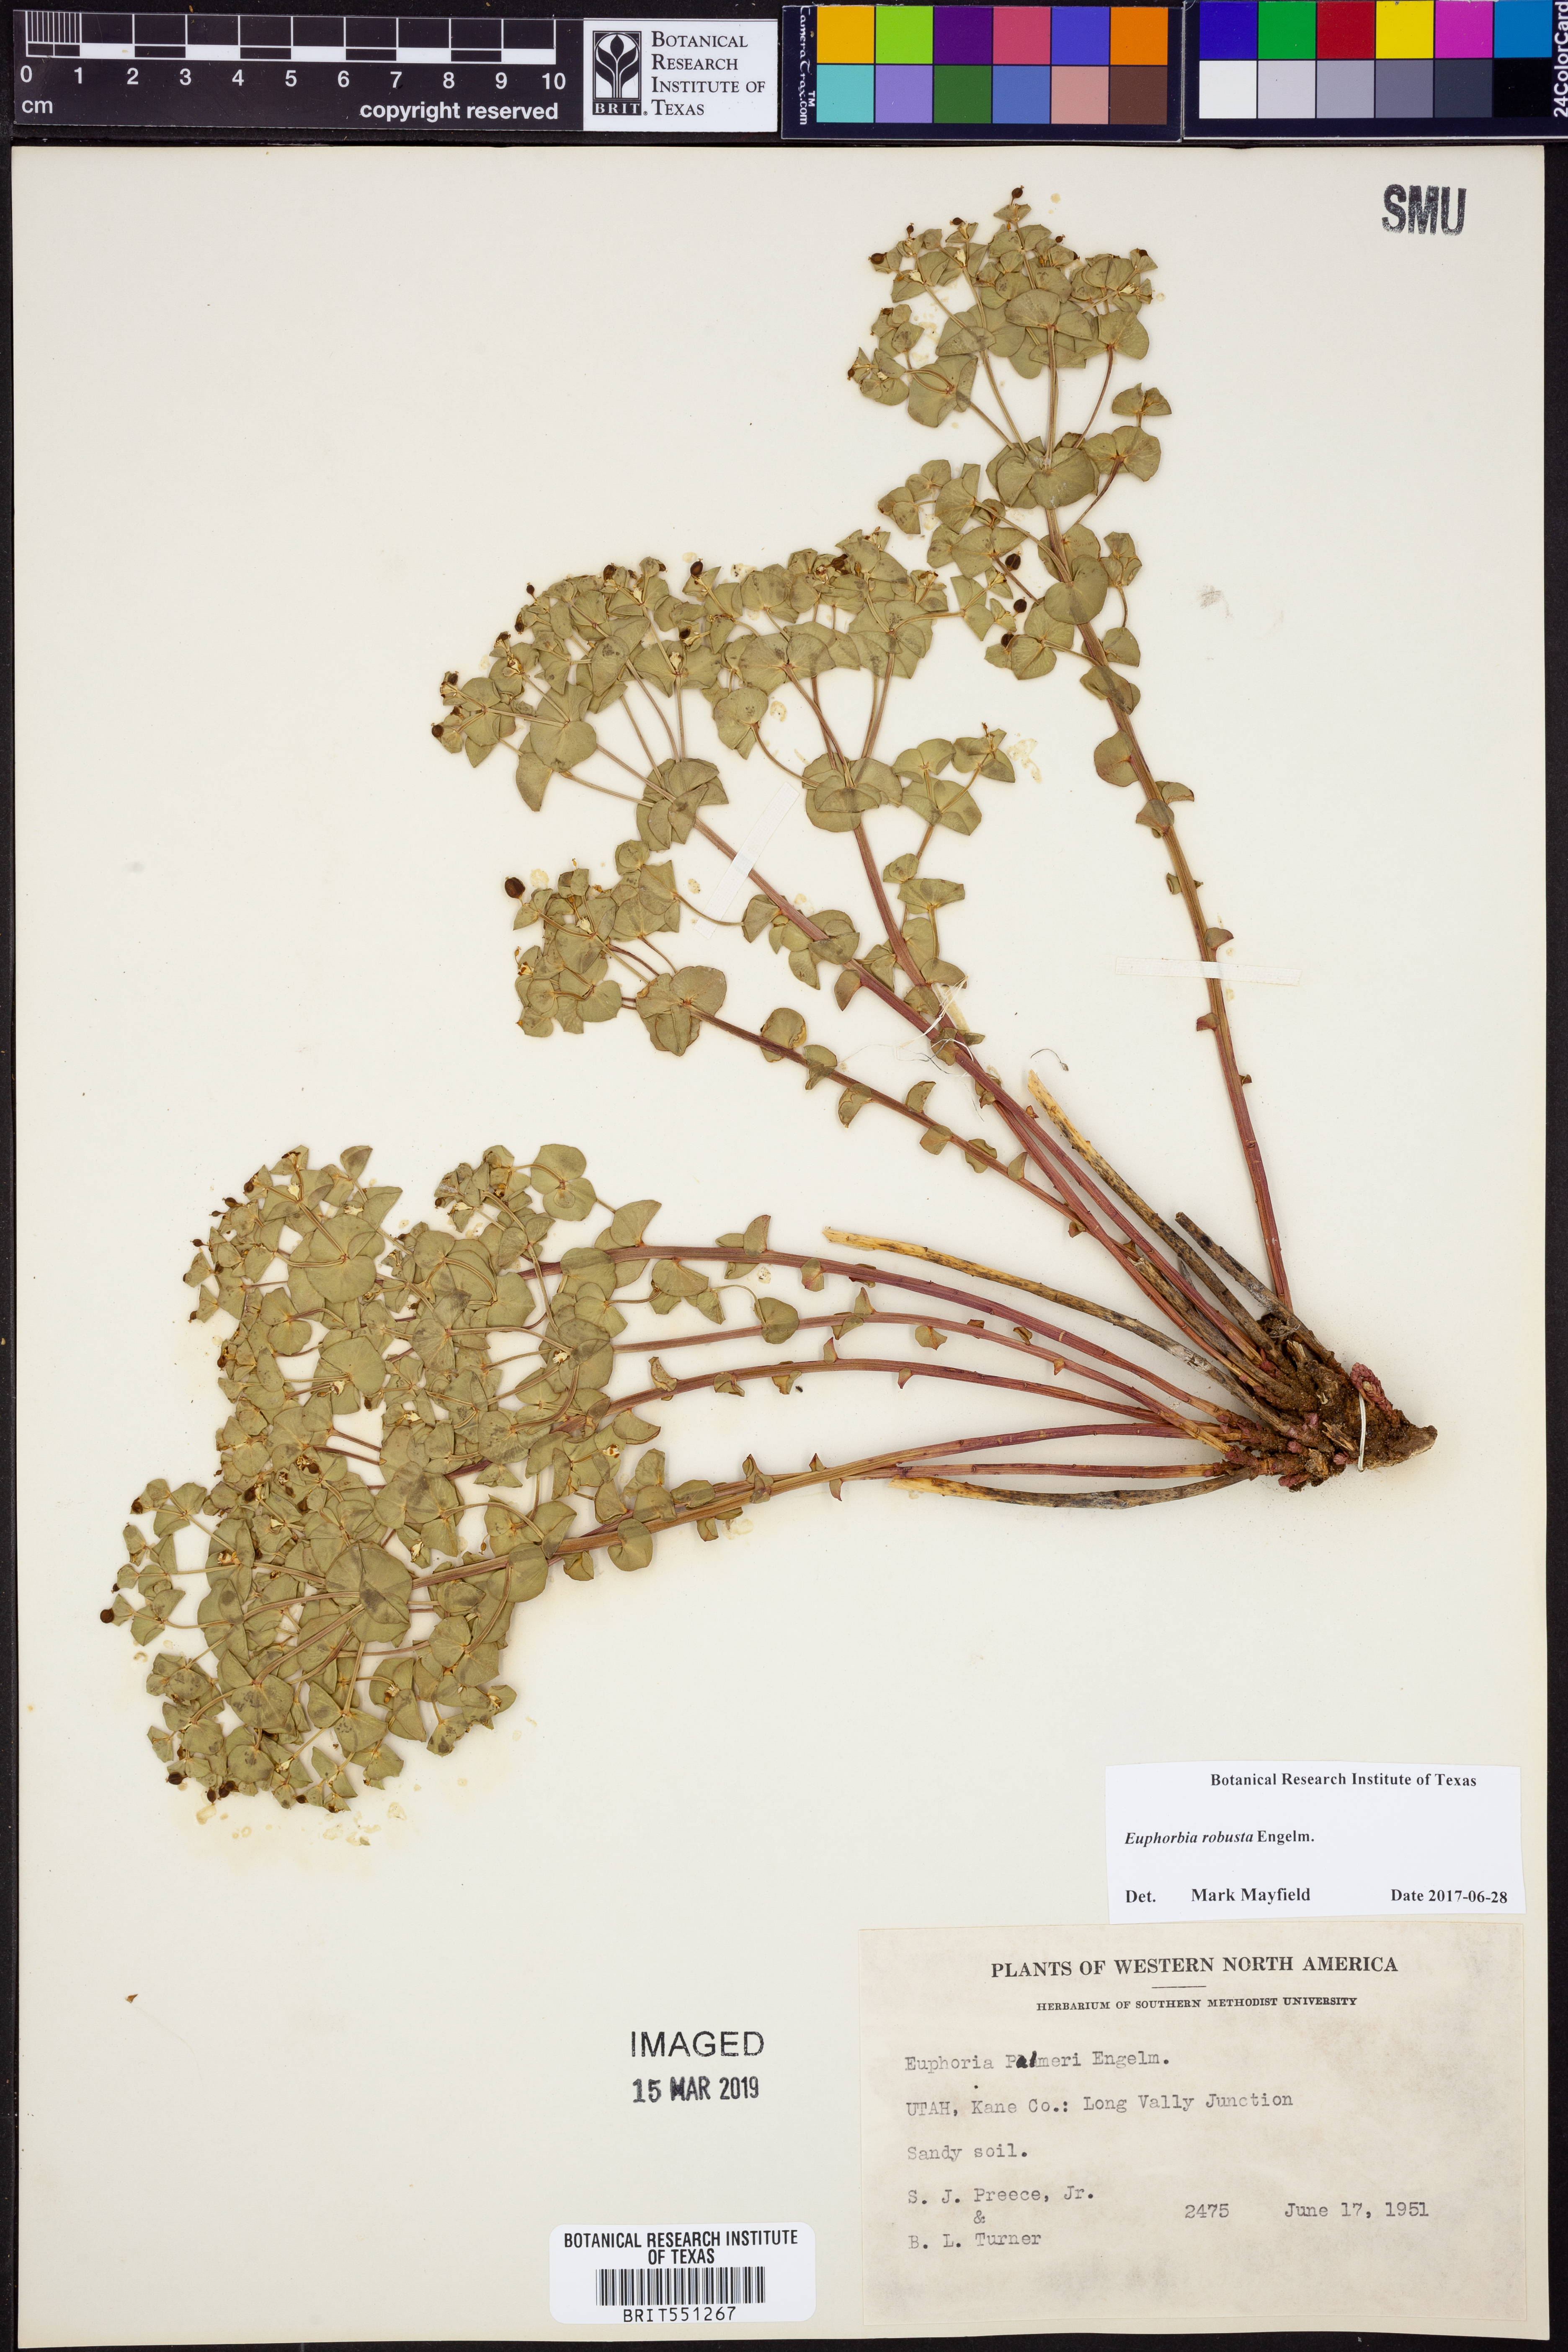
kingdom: Plantae
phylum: Tracheophyta
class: Magnoliopsida
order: Malpighiales
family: Euphorbiaceae
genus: Euphorbia
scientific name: Euphorbia brachycera
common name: Shorthorn spurge
